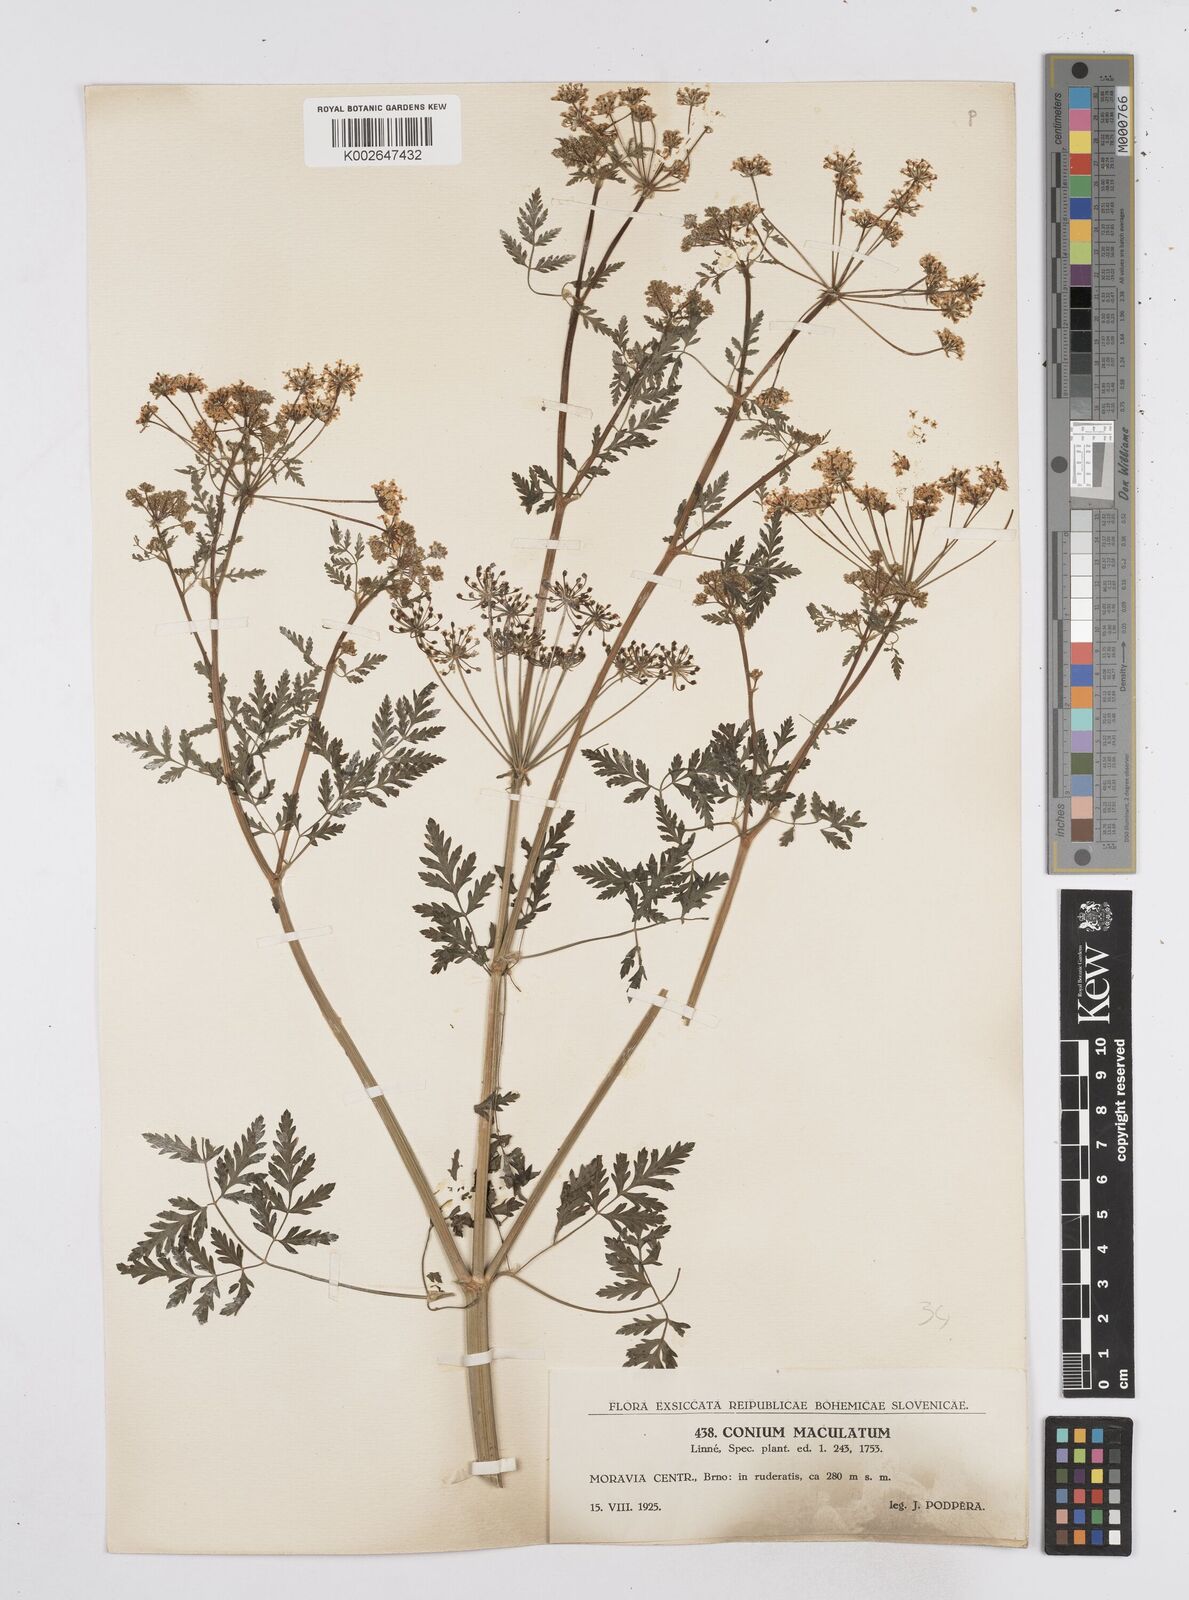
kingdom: Plantae
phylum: Tracheophyta
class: Magnoliopsida
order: Apiales
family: Apiaceae
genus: Conium
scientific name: Conium maculatum
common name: Hemlock
